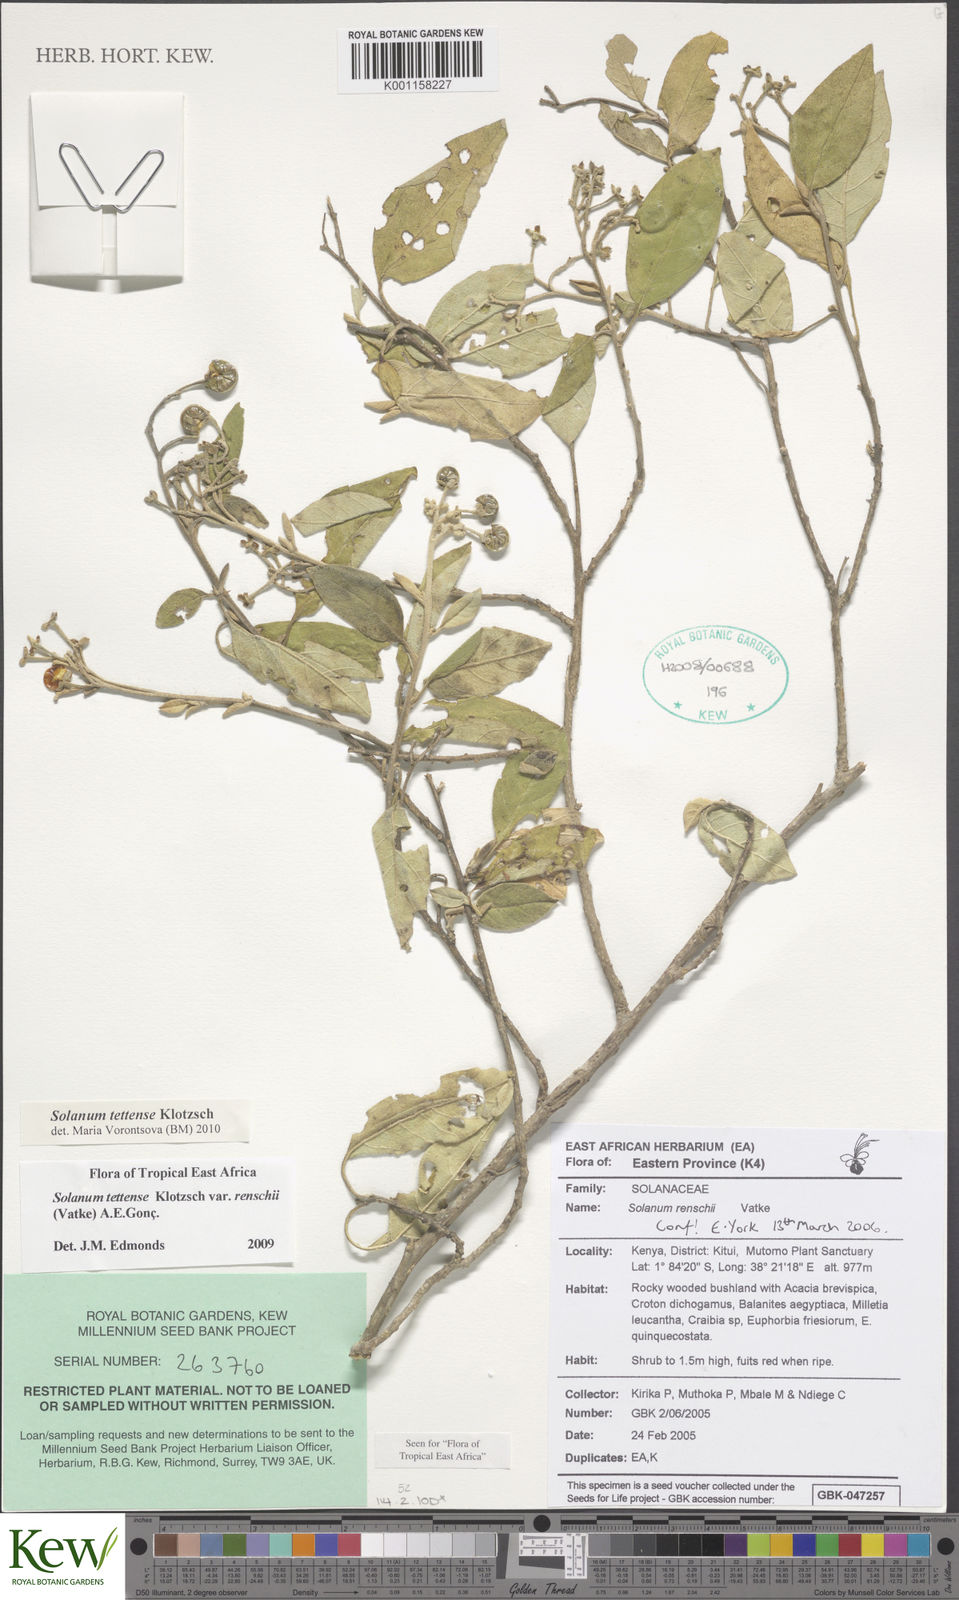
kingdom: Plantae
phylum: Tracheophyta
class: Magnoliopsida
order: Solanales
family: Solanaceae
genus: Solanum
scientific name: Solanum tettense
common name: Mozambique bitter apple
